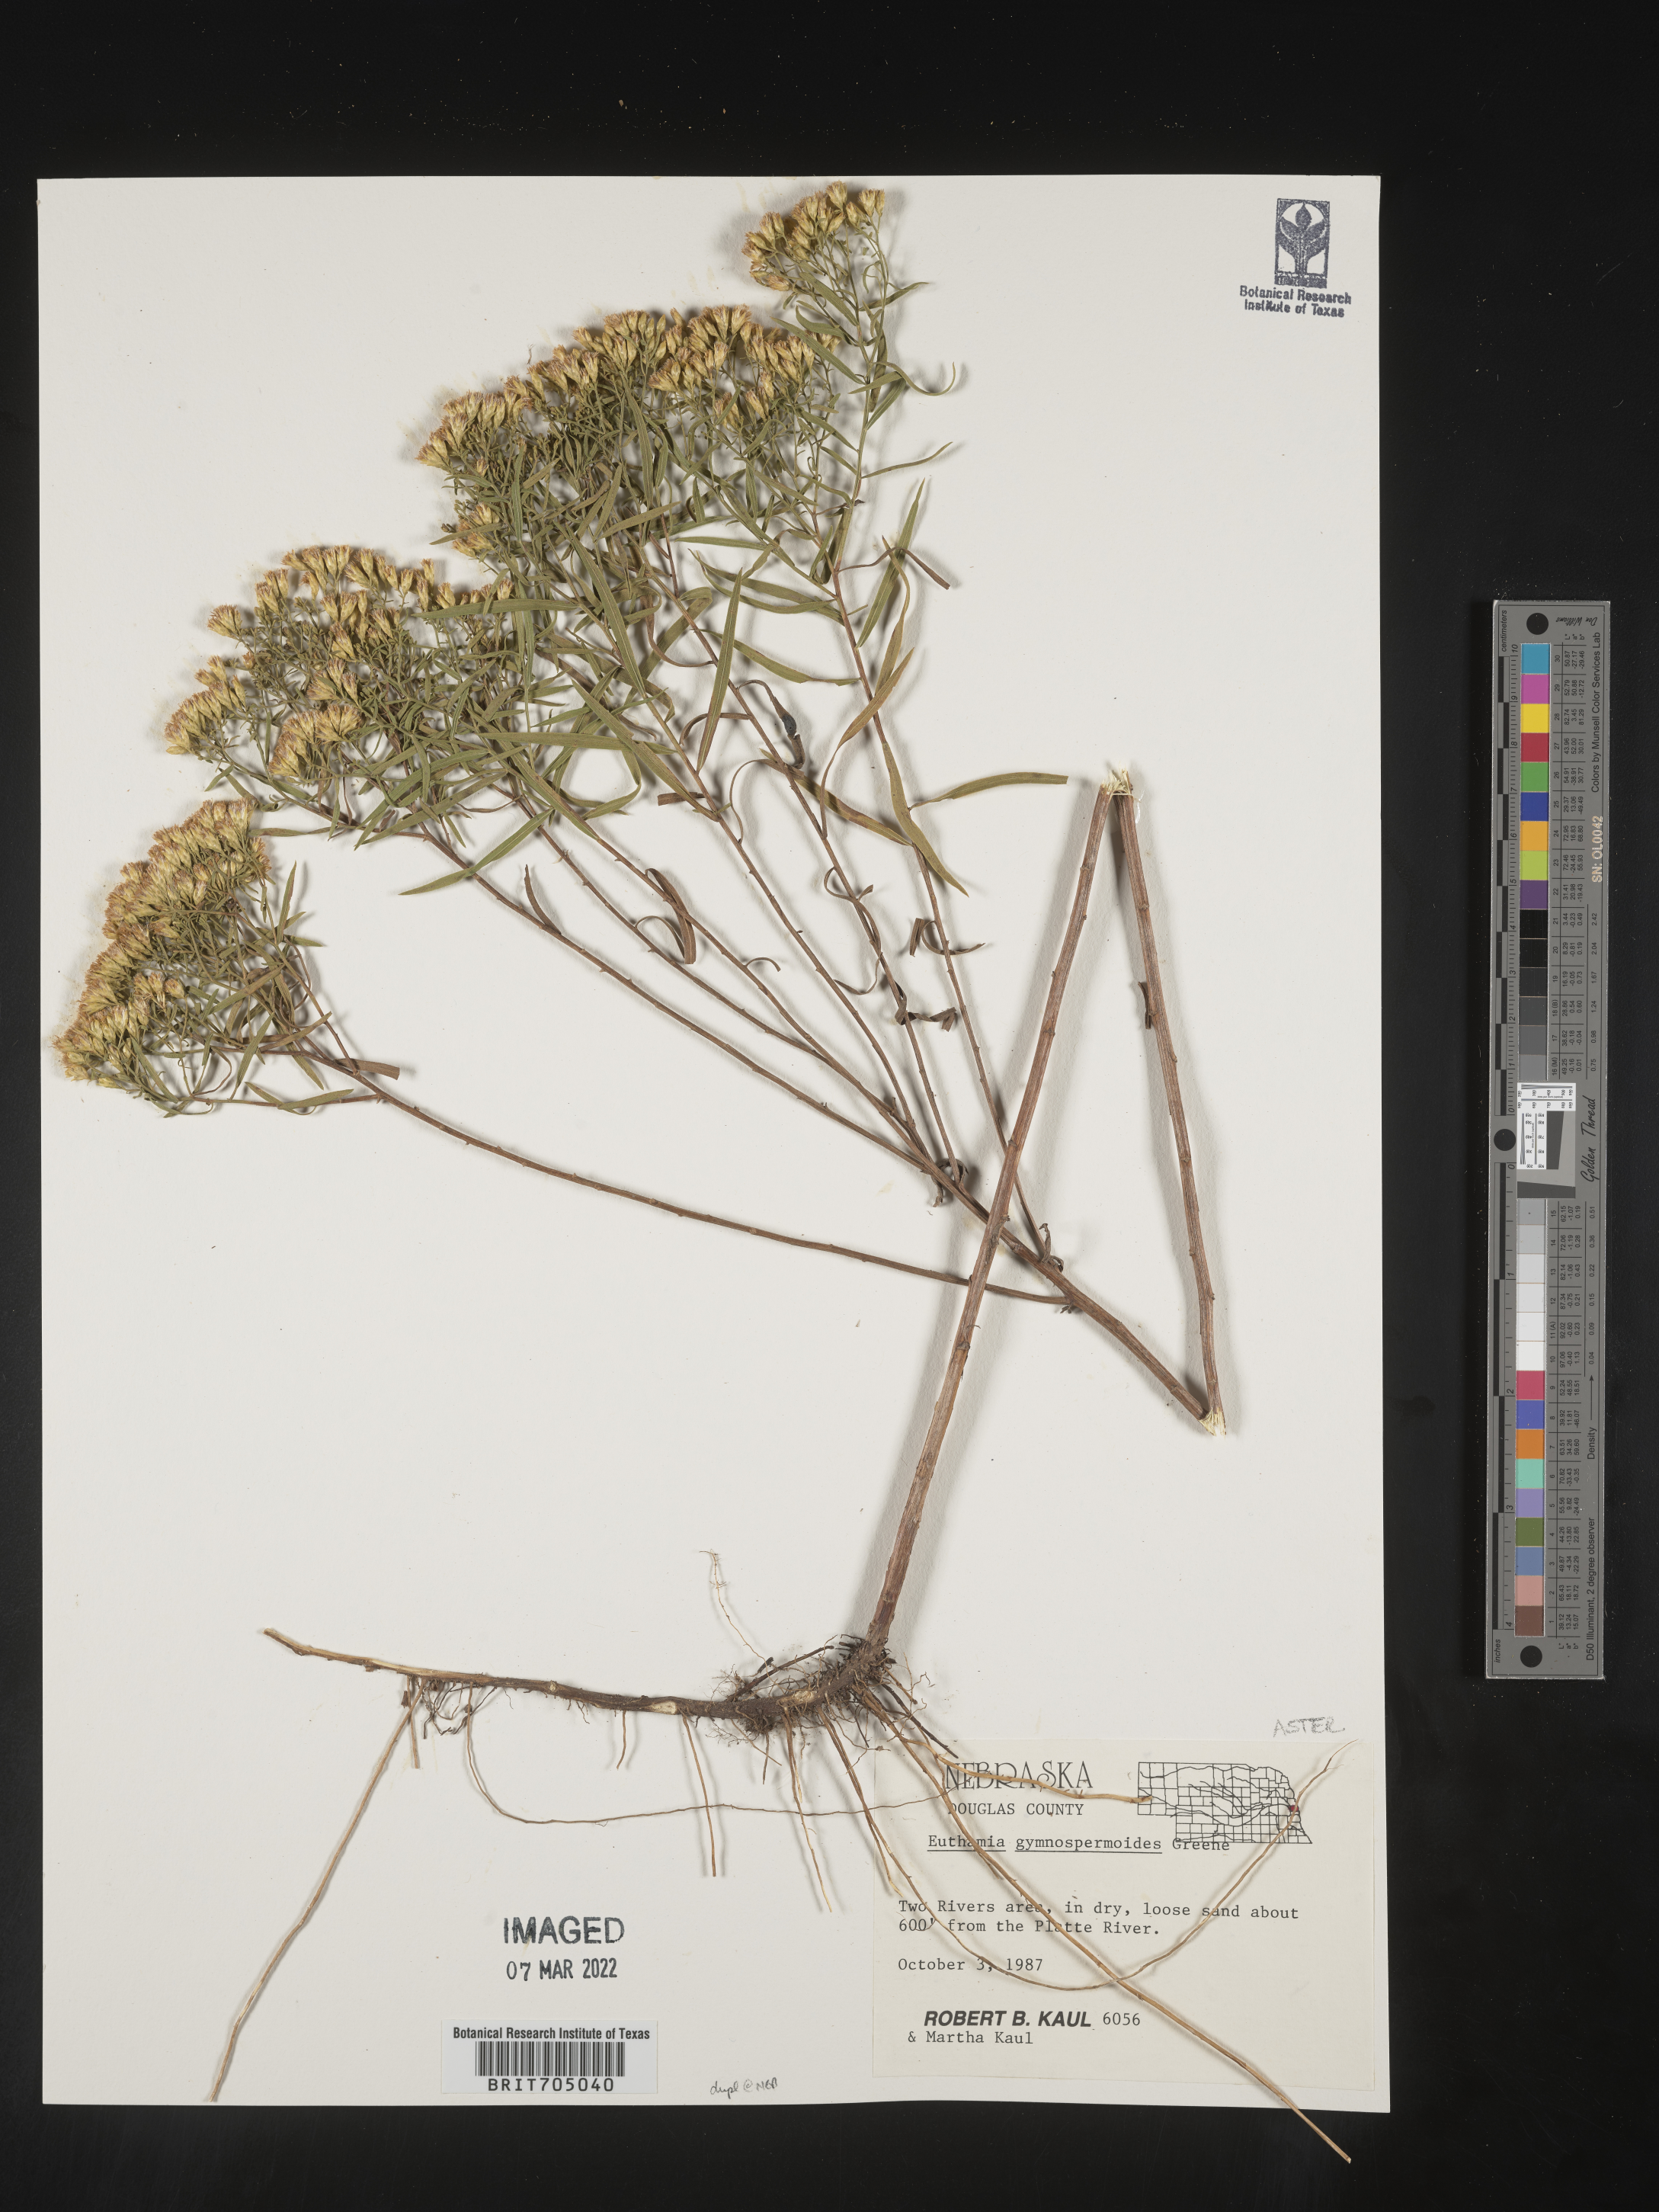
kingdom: Plantae
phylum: Tracheophyta
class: Magnoliopsida
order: Asterales
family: Asteraceae
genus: Euthamia
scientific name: Euthamia gymnospermoides
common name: Great plains goldentop
